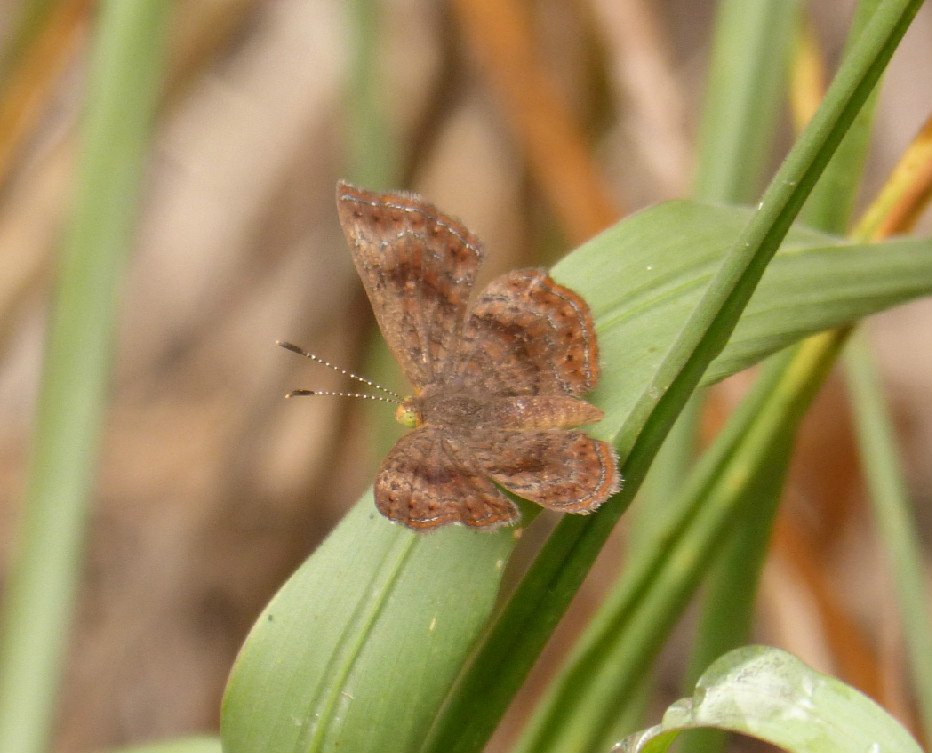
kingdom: Animalia
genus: Calephelis
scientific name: Calephelis perditalis
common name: Rounded Metalmark
